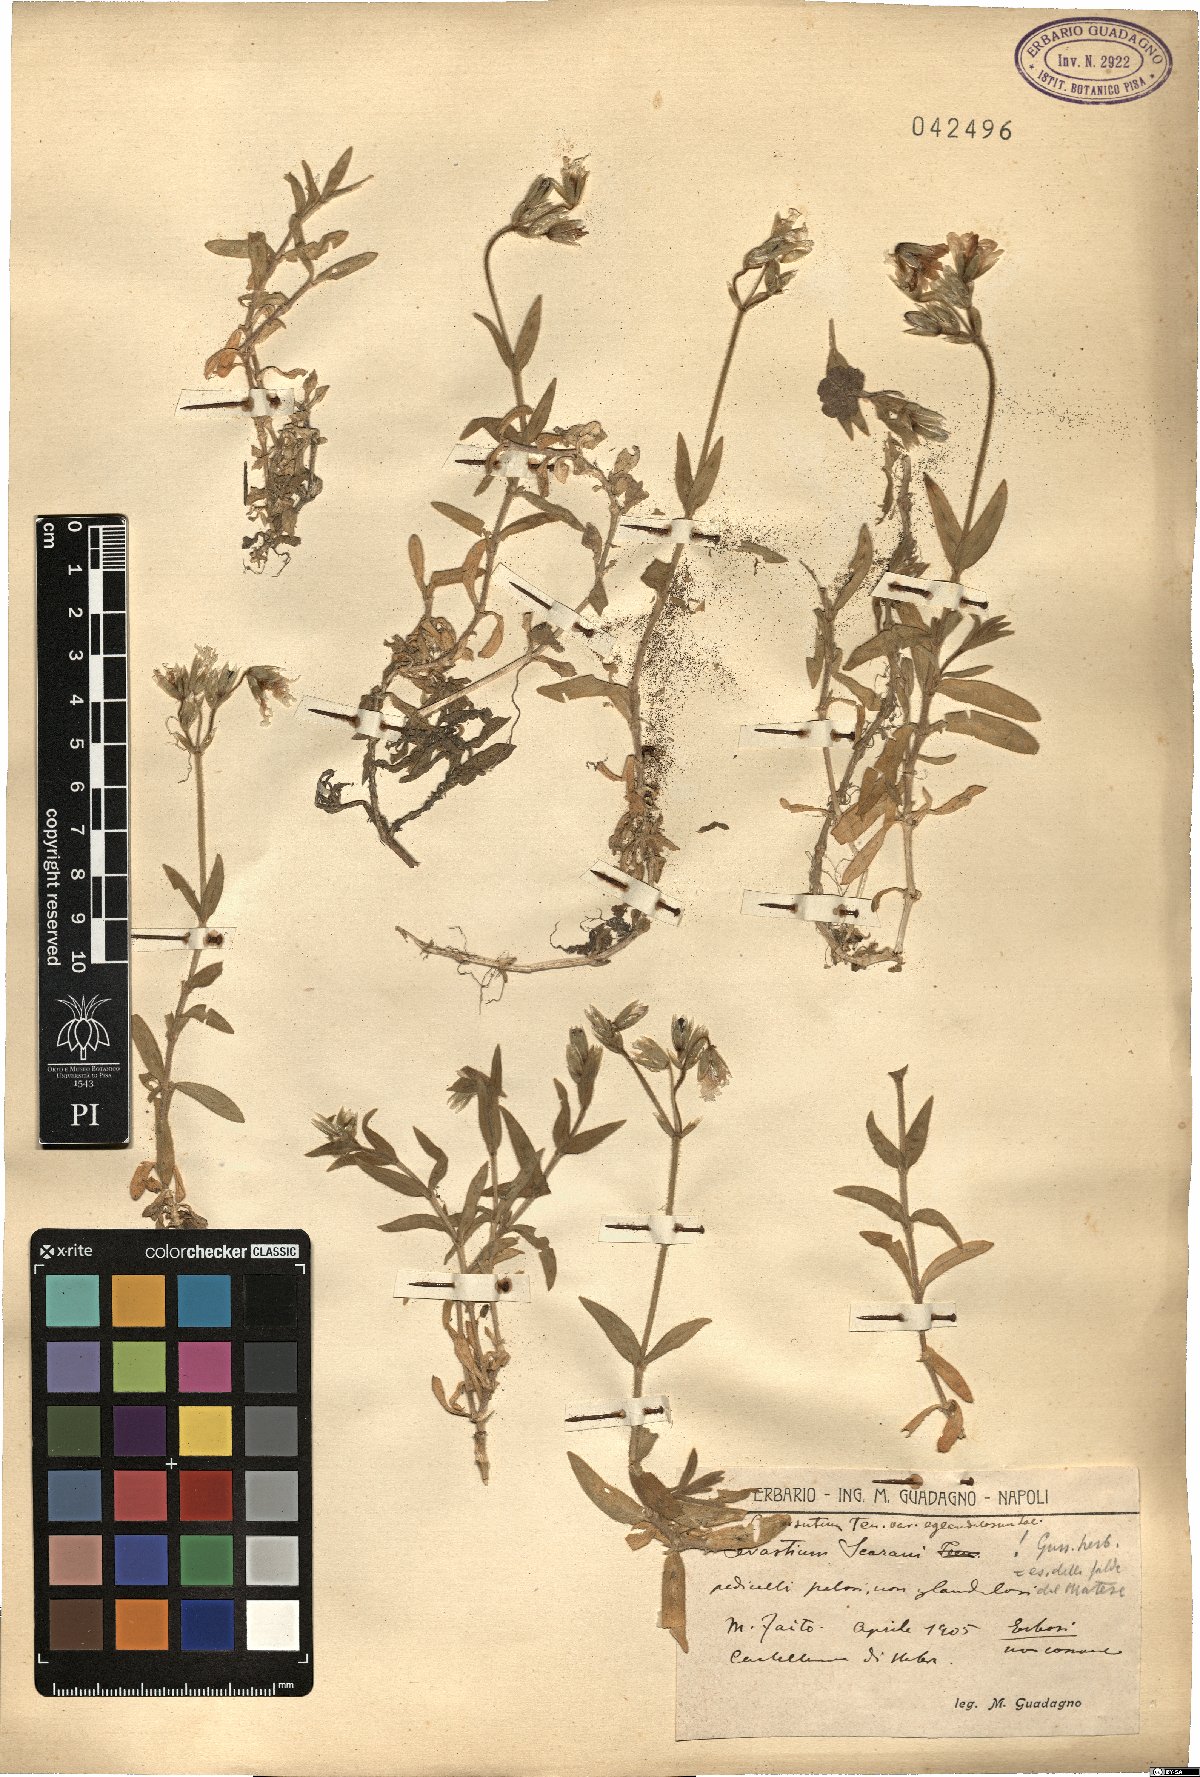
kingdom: Plantae
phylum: Tracheophyta
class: Magnoliopsida
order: Caryophyllales
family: Caryophyllaceae
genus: Cerastium
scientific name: Cerastium scaranii
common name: Italian mouse-ear
